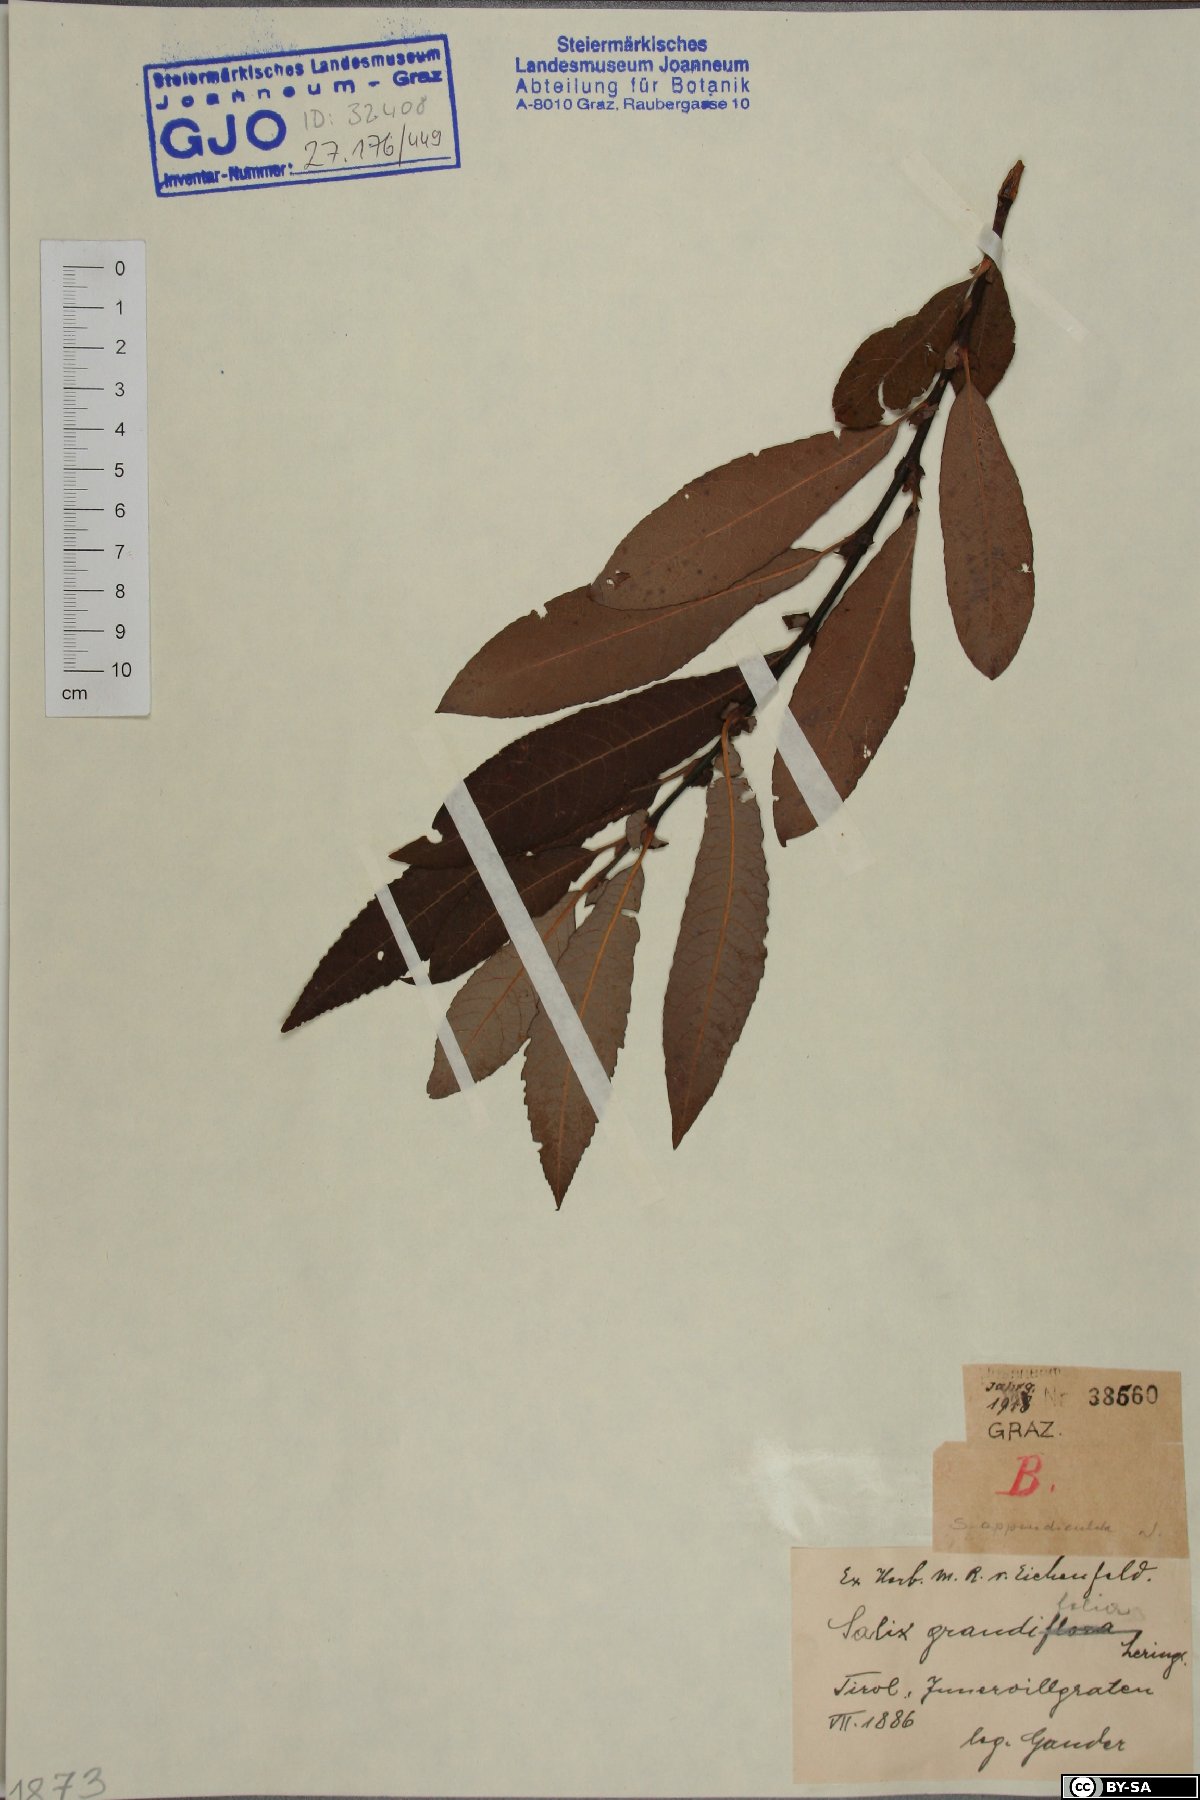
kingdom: Plantae
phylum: Tracheophyta
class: Magnoliopsida
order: Malpighiales
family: Salicaceae
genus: Salix
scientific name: Salix appendiculata
